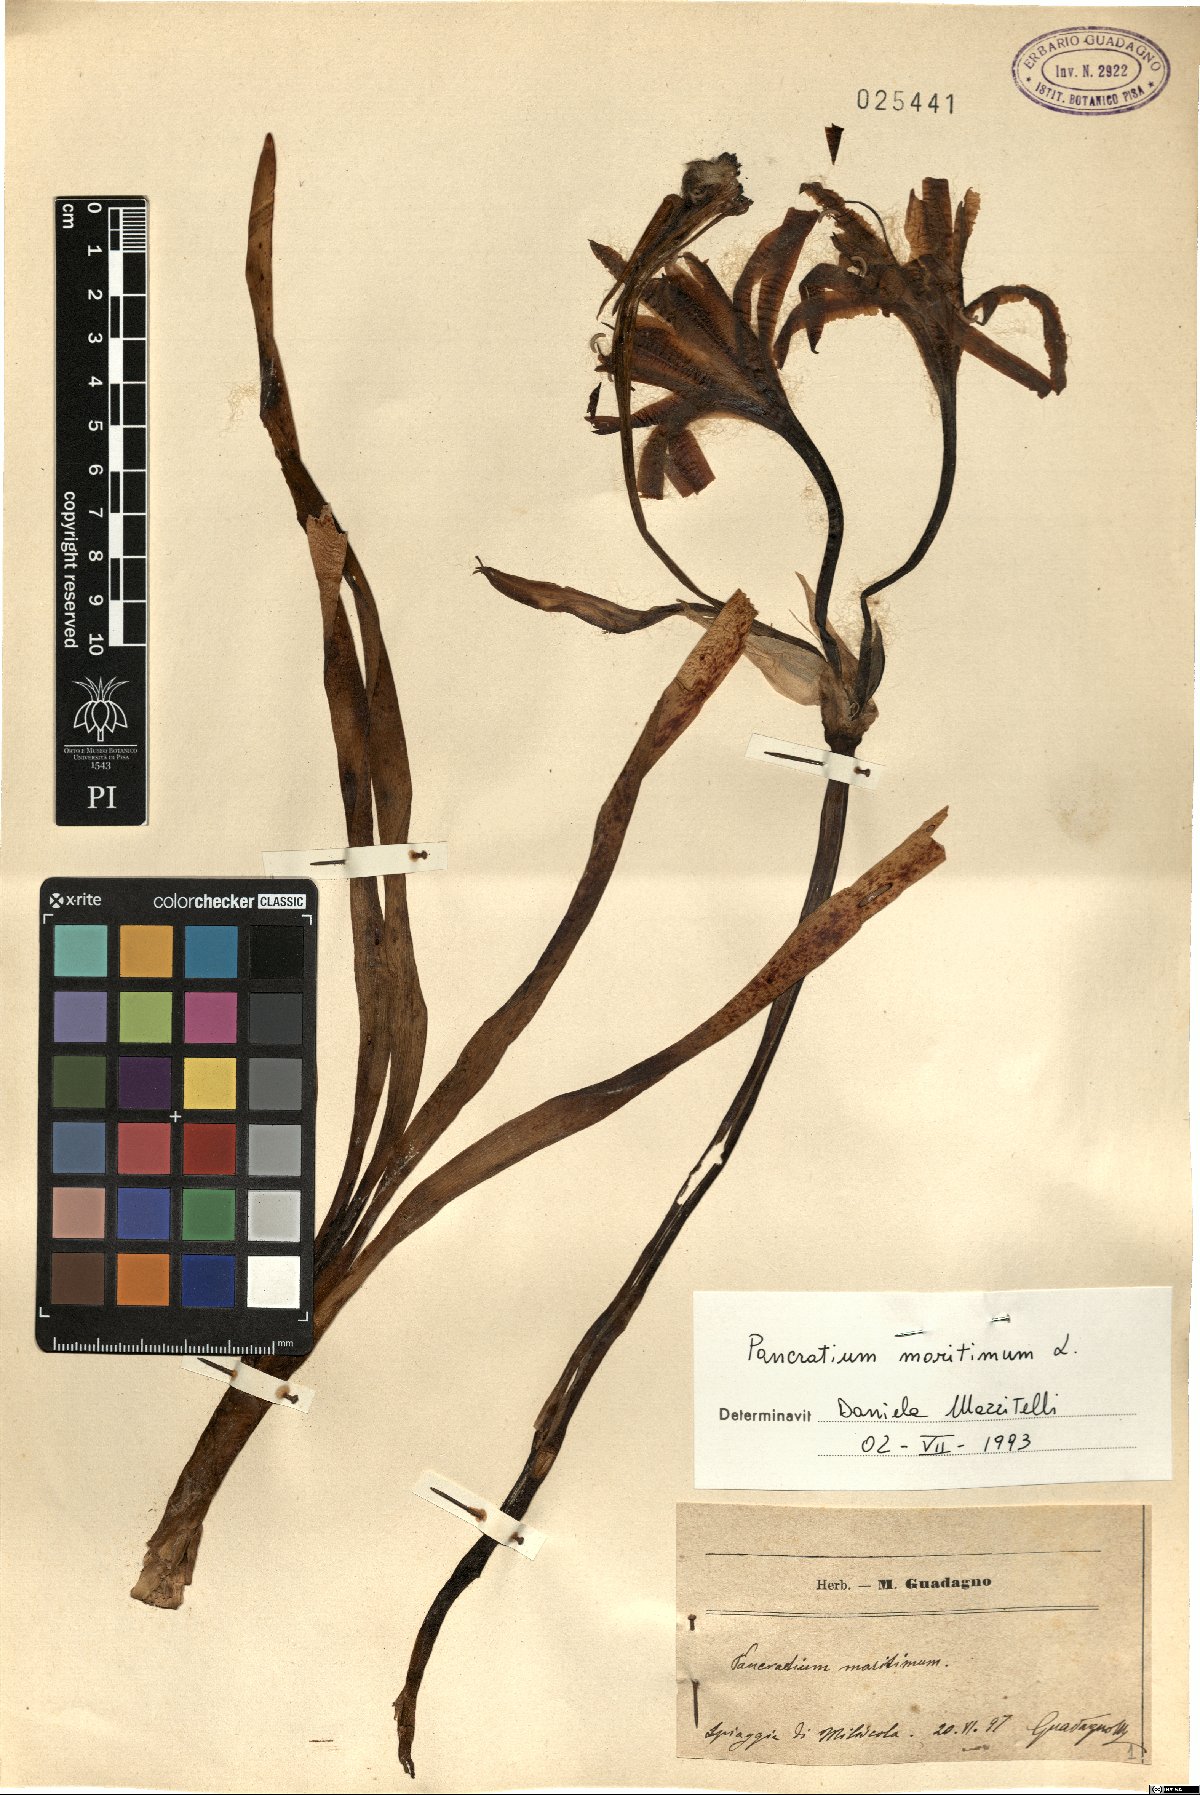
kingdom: Plantae
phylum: Tracheophyta
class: Liliopsida
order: Asparagales
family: Amaryllidaceae
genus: Pancratium
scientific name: Pancratium maritimum
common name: Sea-daffodil
